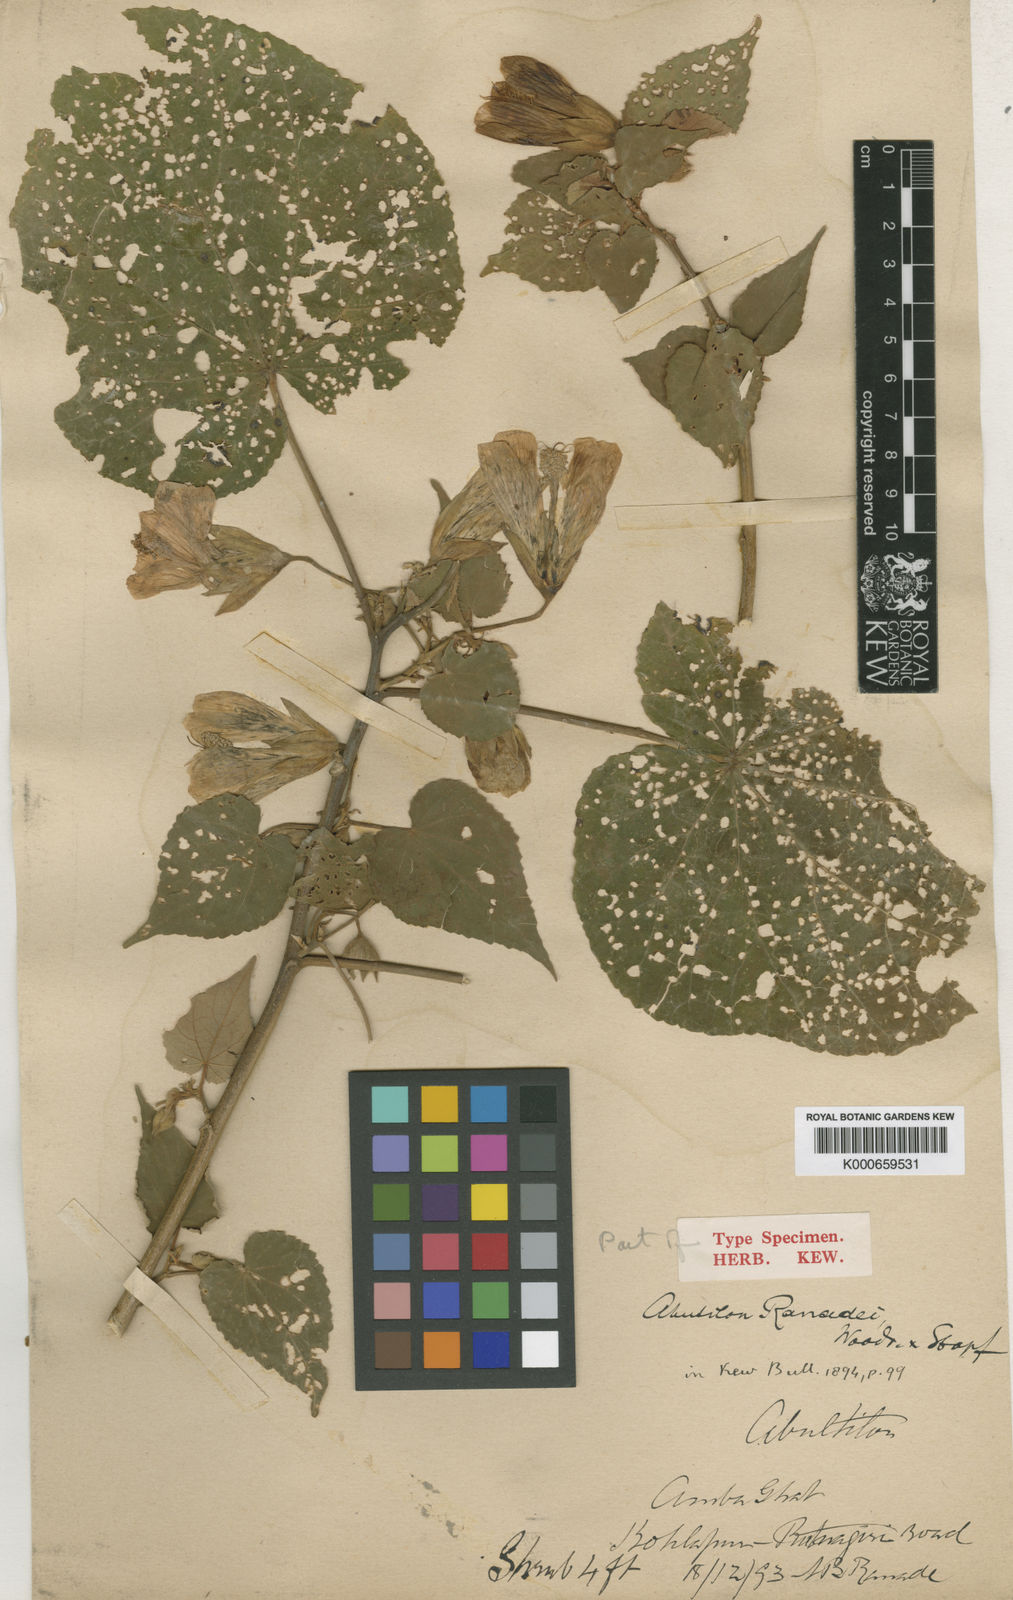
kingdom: Plantae
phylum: Tracheophyta
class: Magnoliopsida
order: Malvales
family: Malvaceae
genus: Abutilon
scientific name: Abutilon ranadei
